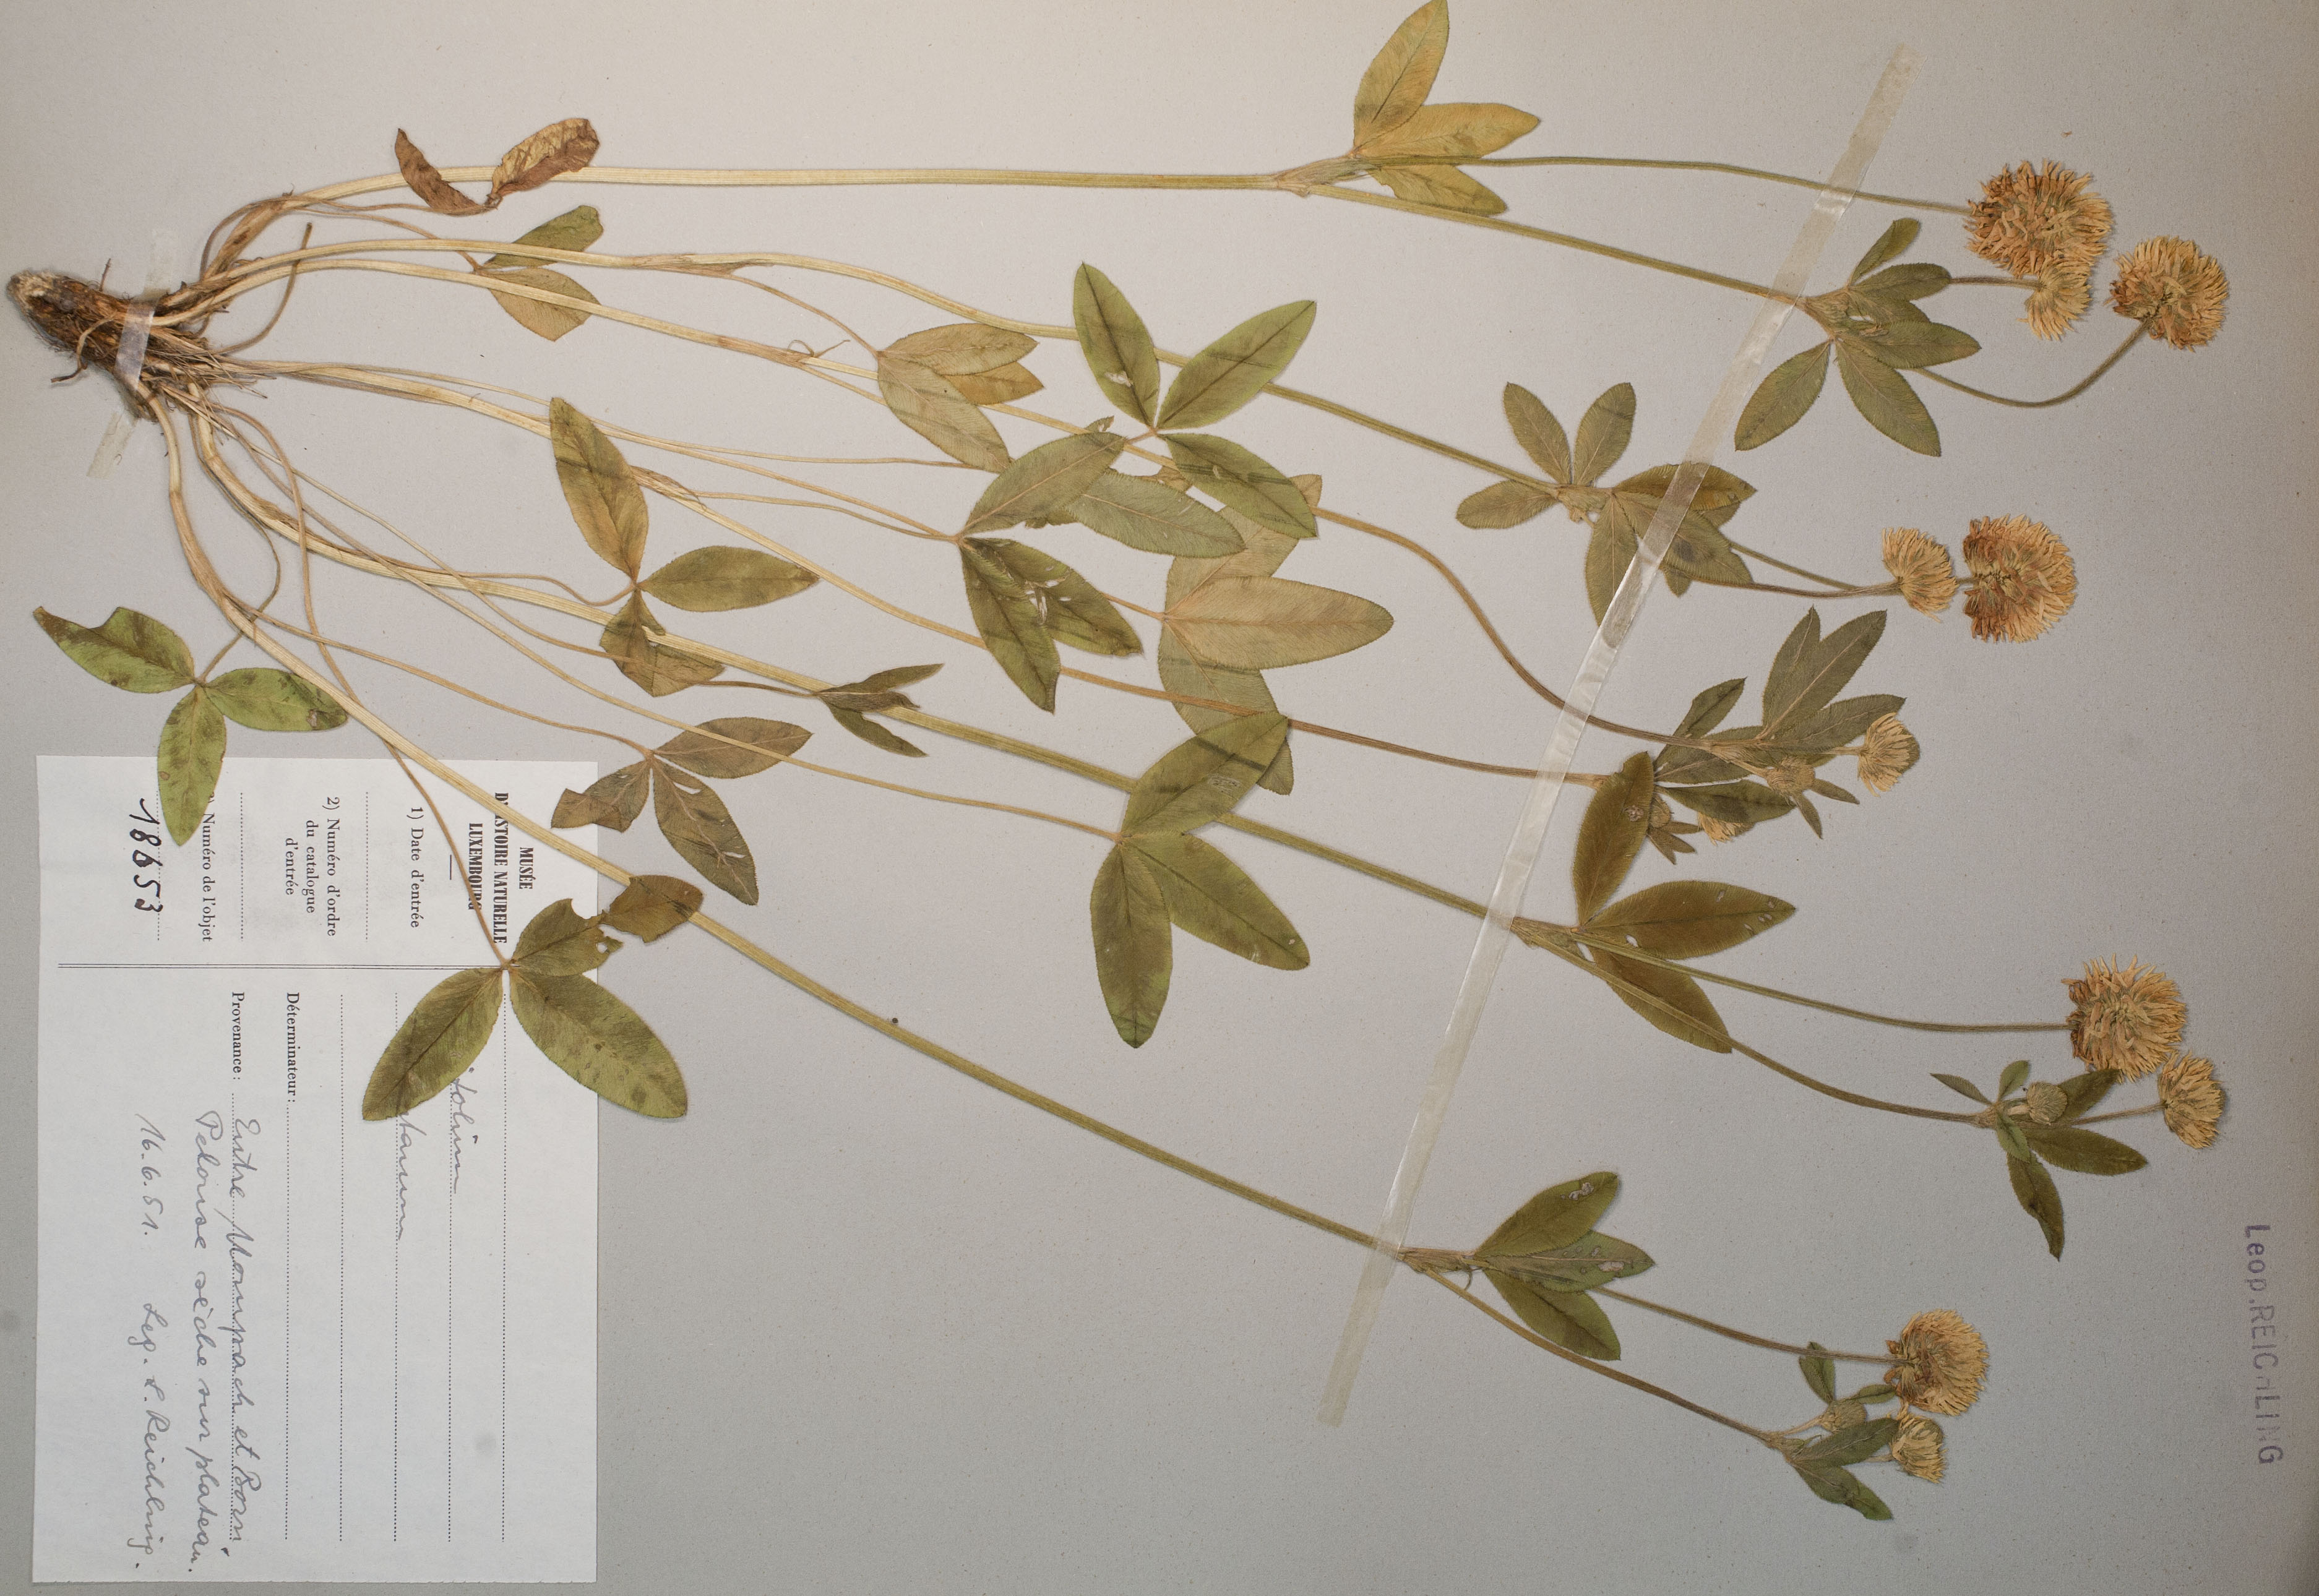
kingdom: Plantae
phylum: Tracheophyta
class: Magnoliopsida
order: Fabales
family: Fabaceae
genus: Trifolium
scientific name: Trifolium montanum
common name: Mountain clover
